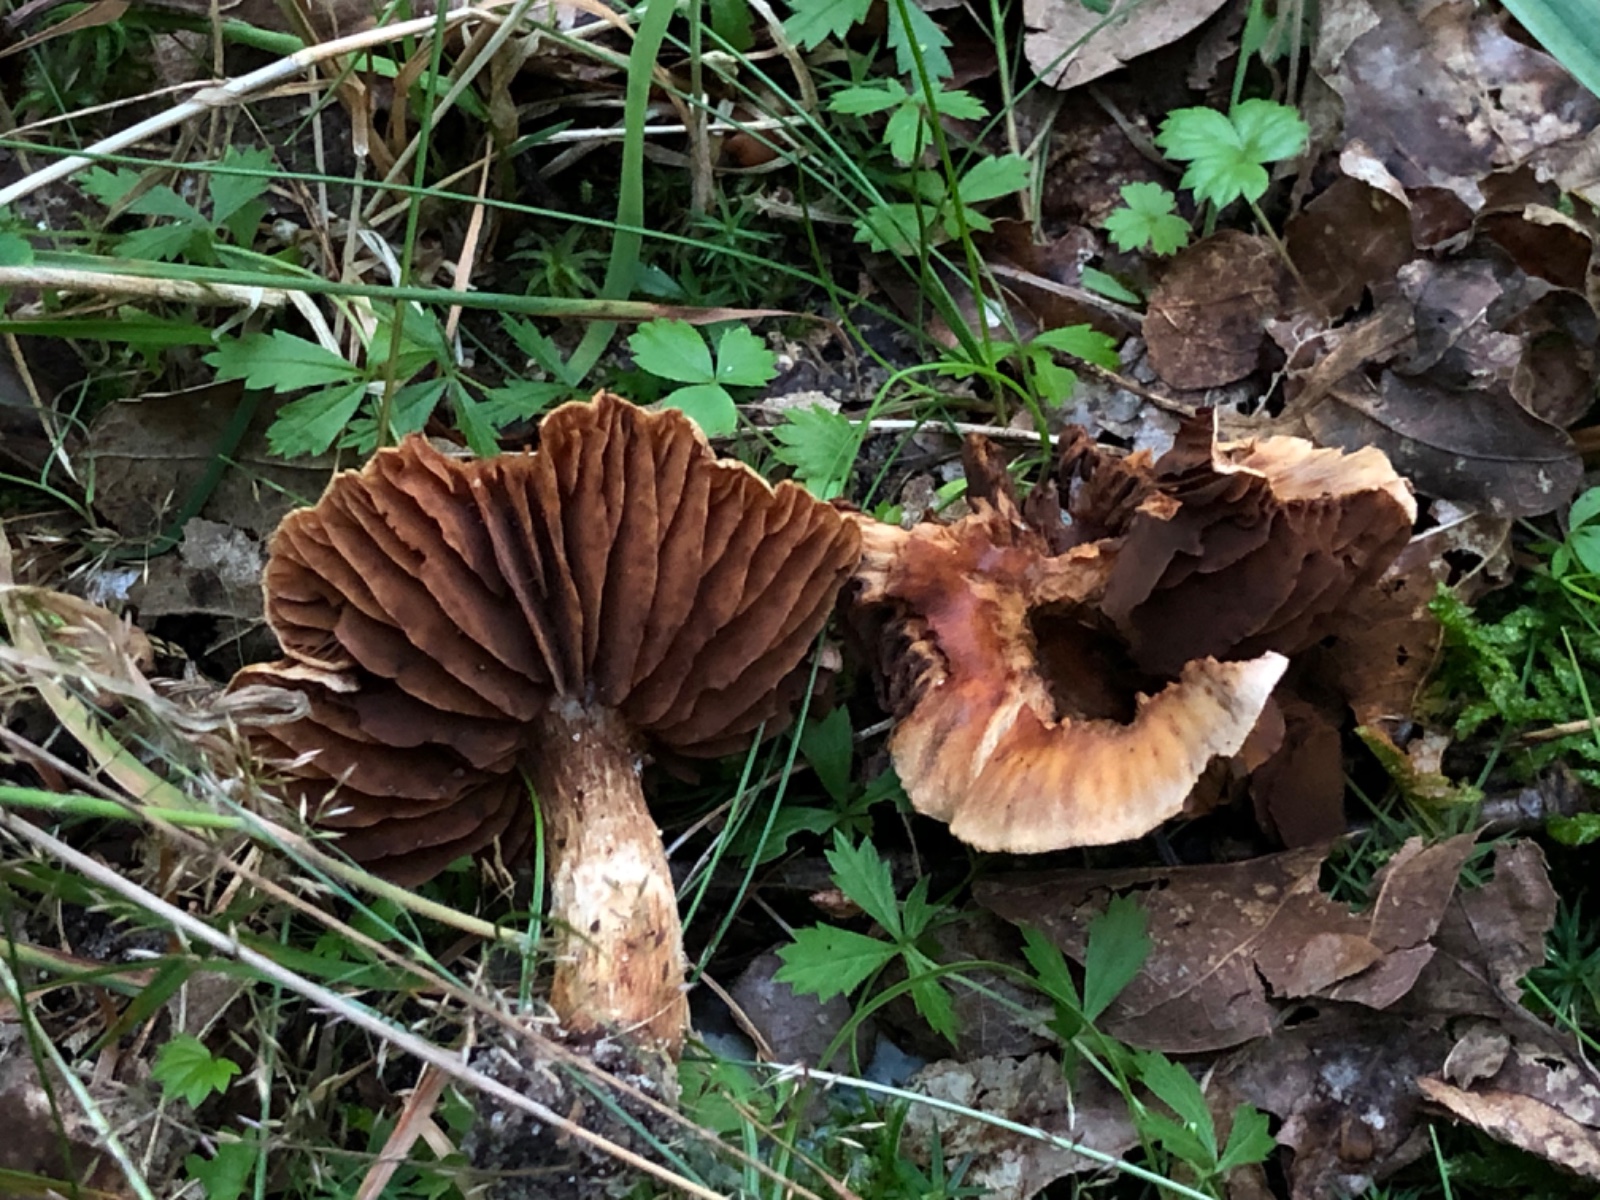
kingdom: Fungi
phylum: Basidiomycota
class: Agaricomycetes
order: Agaricales
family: Cortinariaceae
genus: Cortinarius
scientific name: Cortinarius hinnuleus
